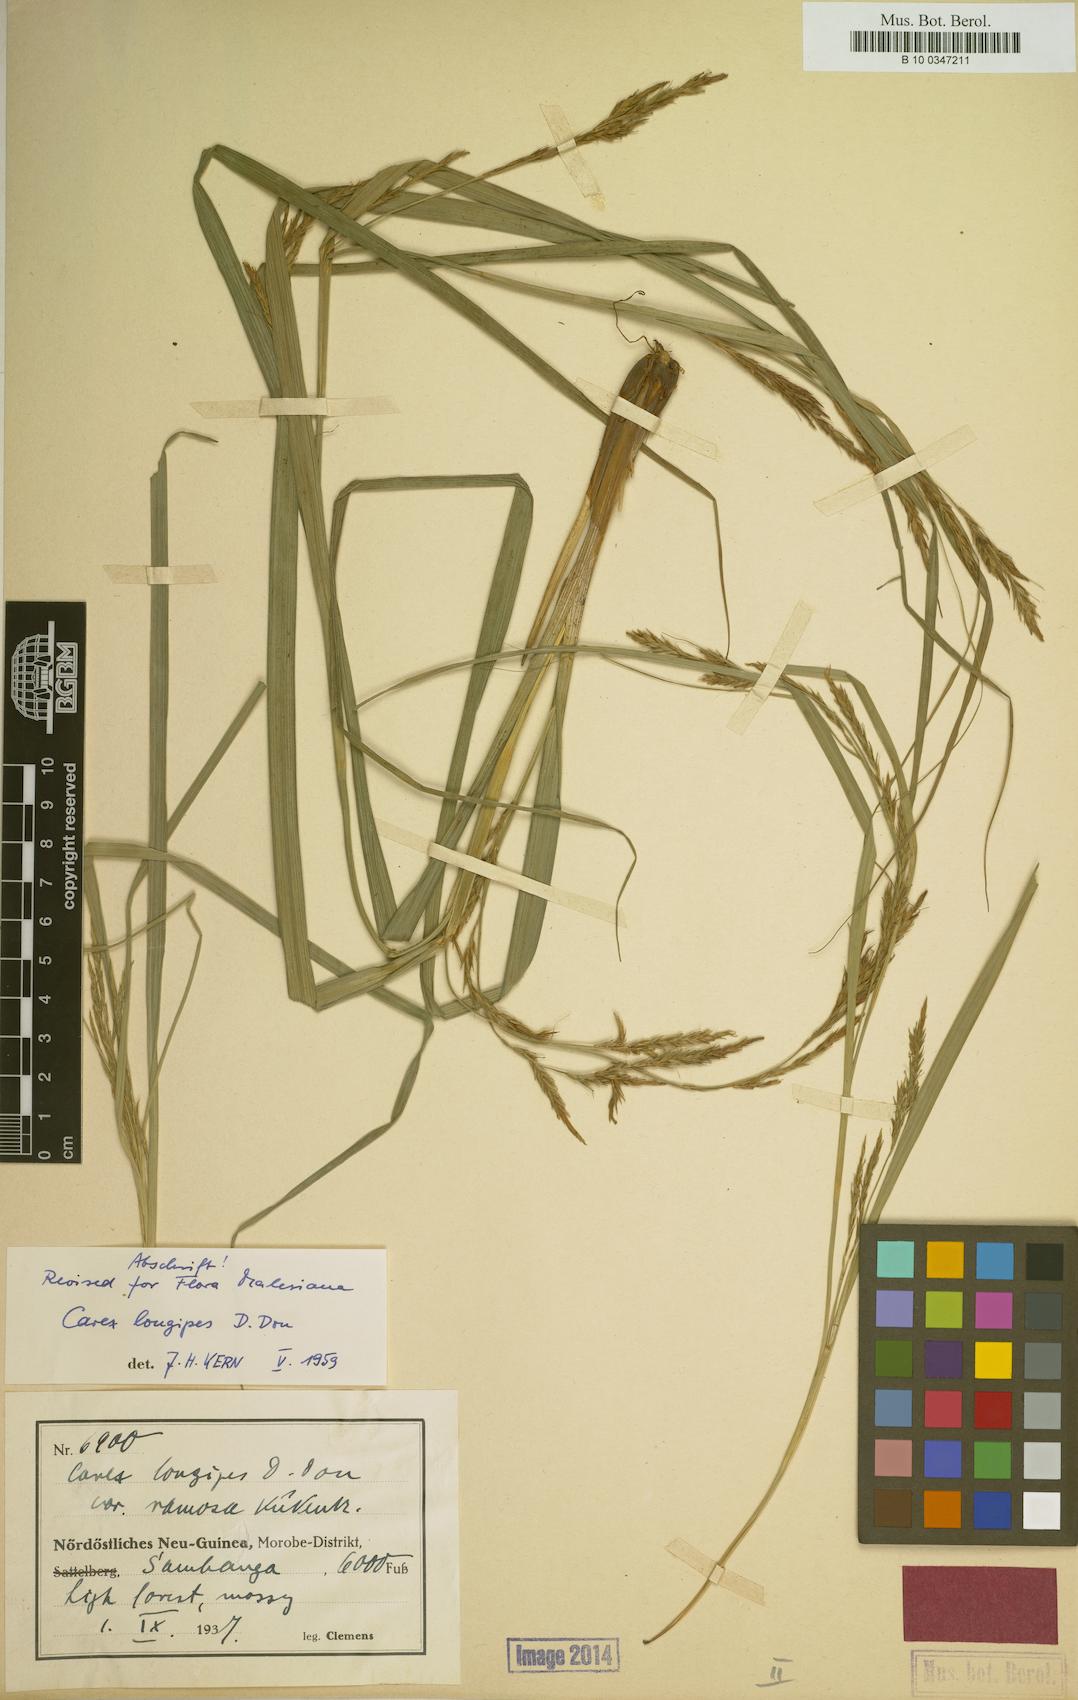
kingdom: Plantae
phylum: Tracheophyta
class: Liliopsida
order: Poales
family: Cyperaceae
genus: Carex
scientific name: Carex longipes
